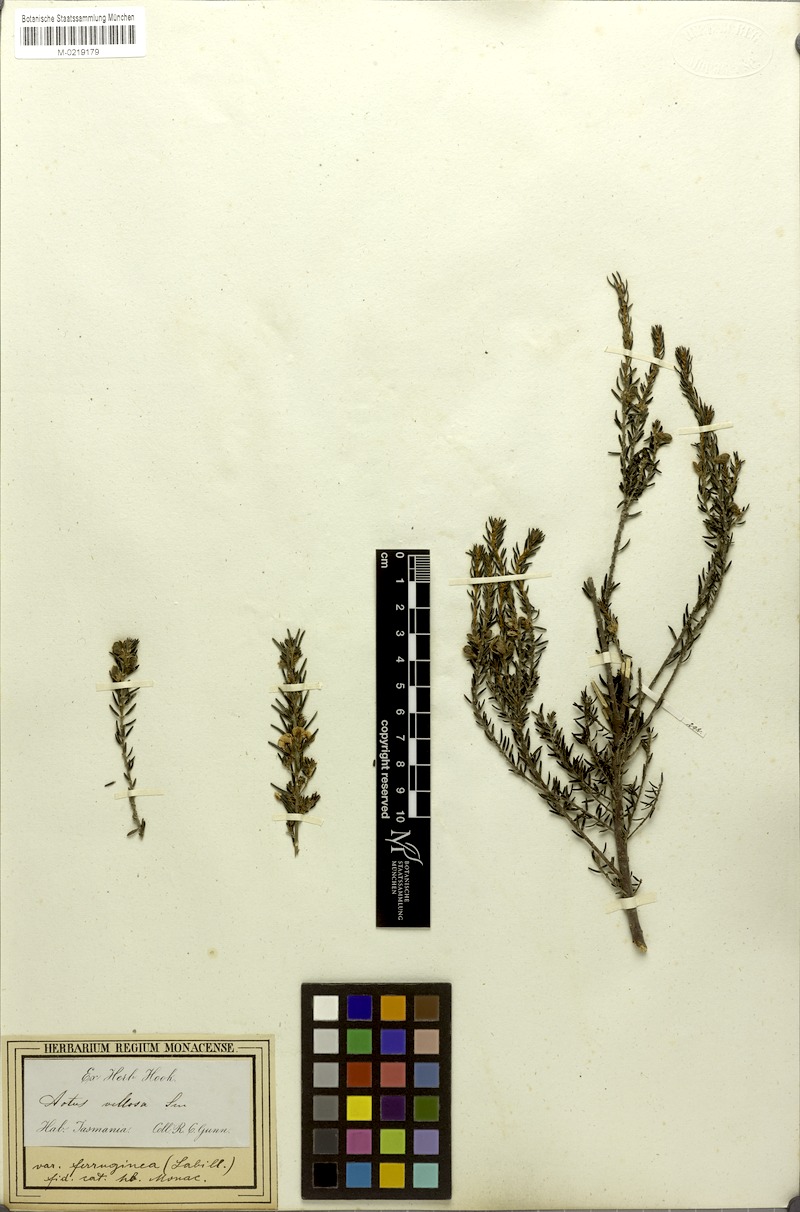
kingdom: Plantae
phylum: Tracheophyta
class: Magnoliopsida
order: Fabales
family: Fabaceae
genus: Aotus
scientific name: Aotus ericoides
